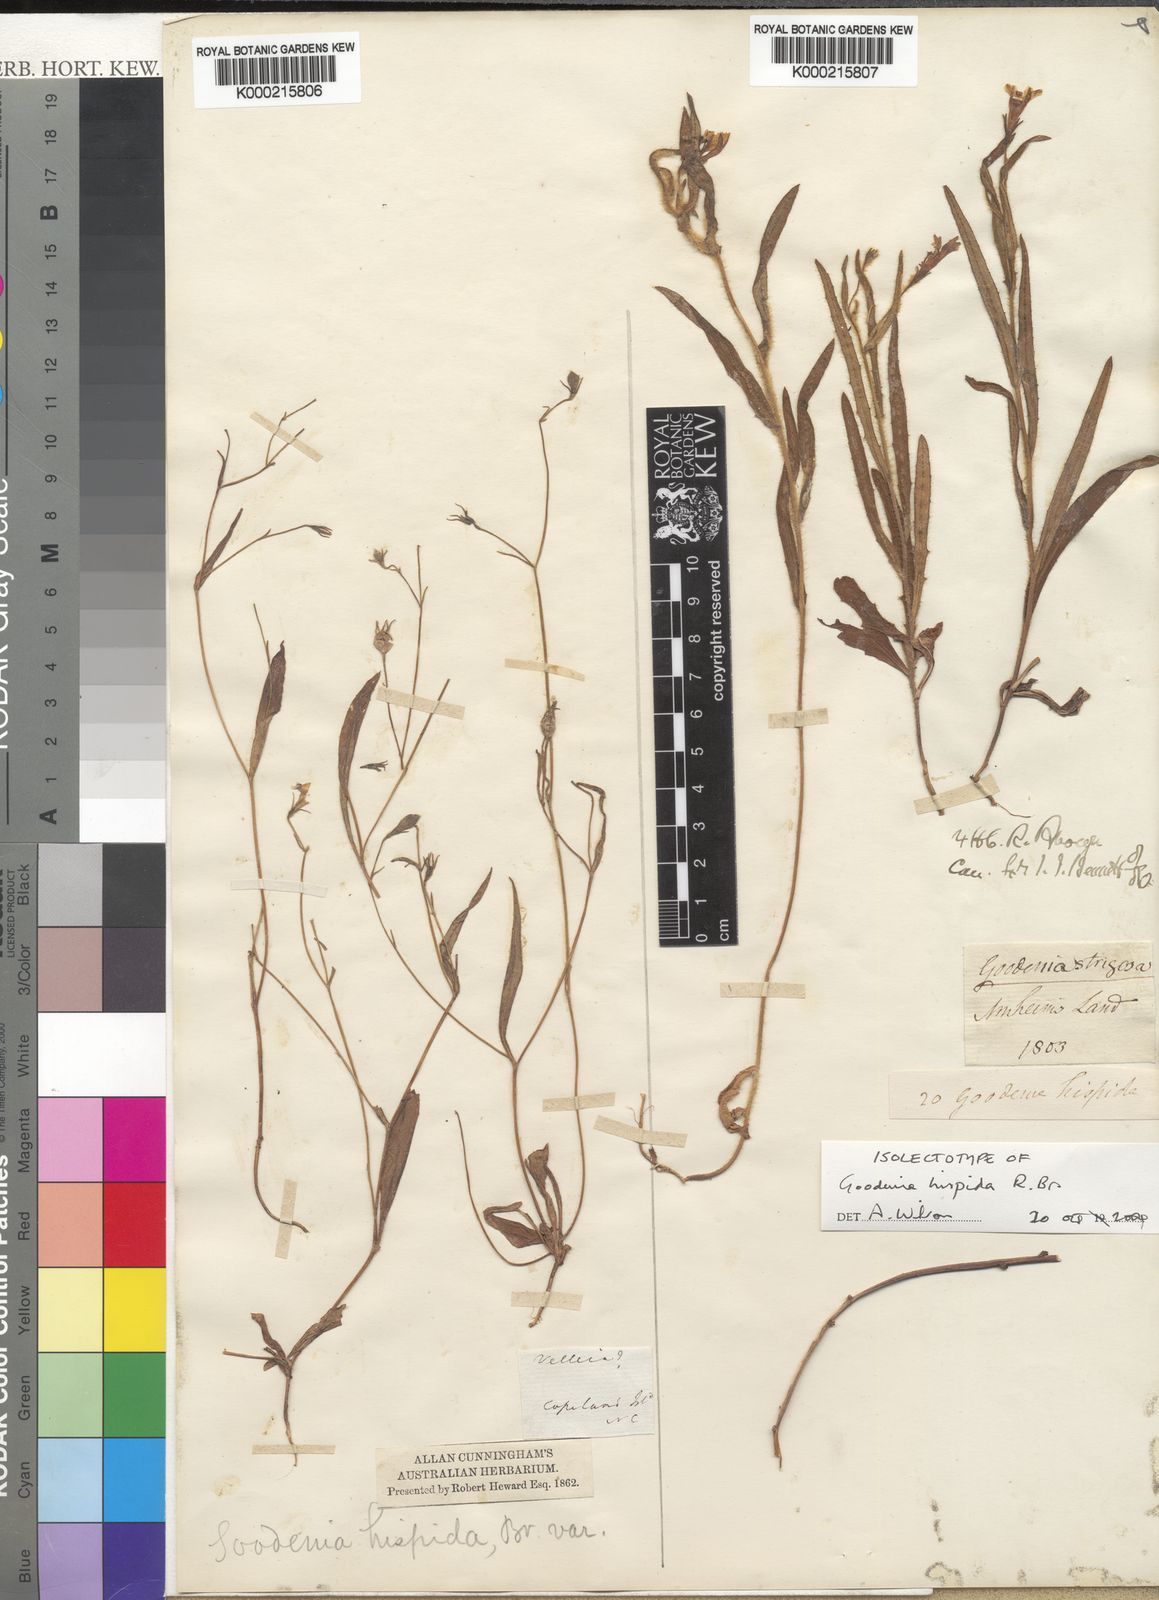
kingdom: Plantae
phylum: Tracheophyta
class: Magnoliopsida
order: Asterales
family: Goodeniaceae
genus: Goodenia
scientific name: Goodenia hispida
